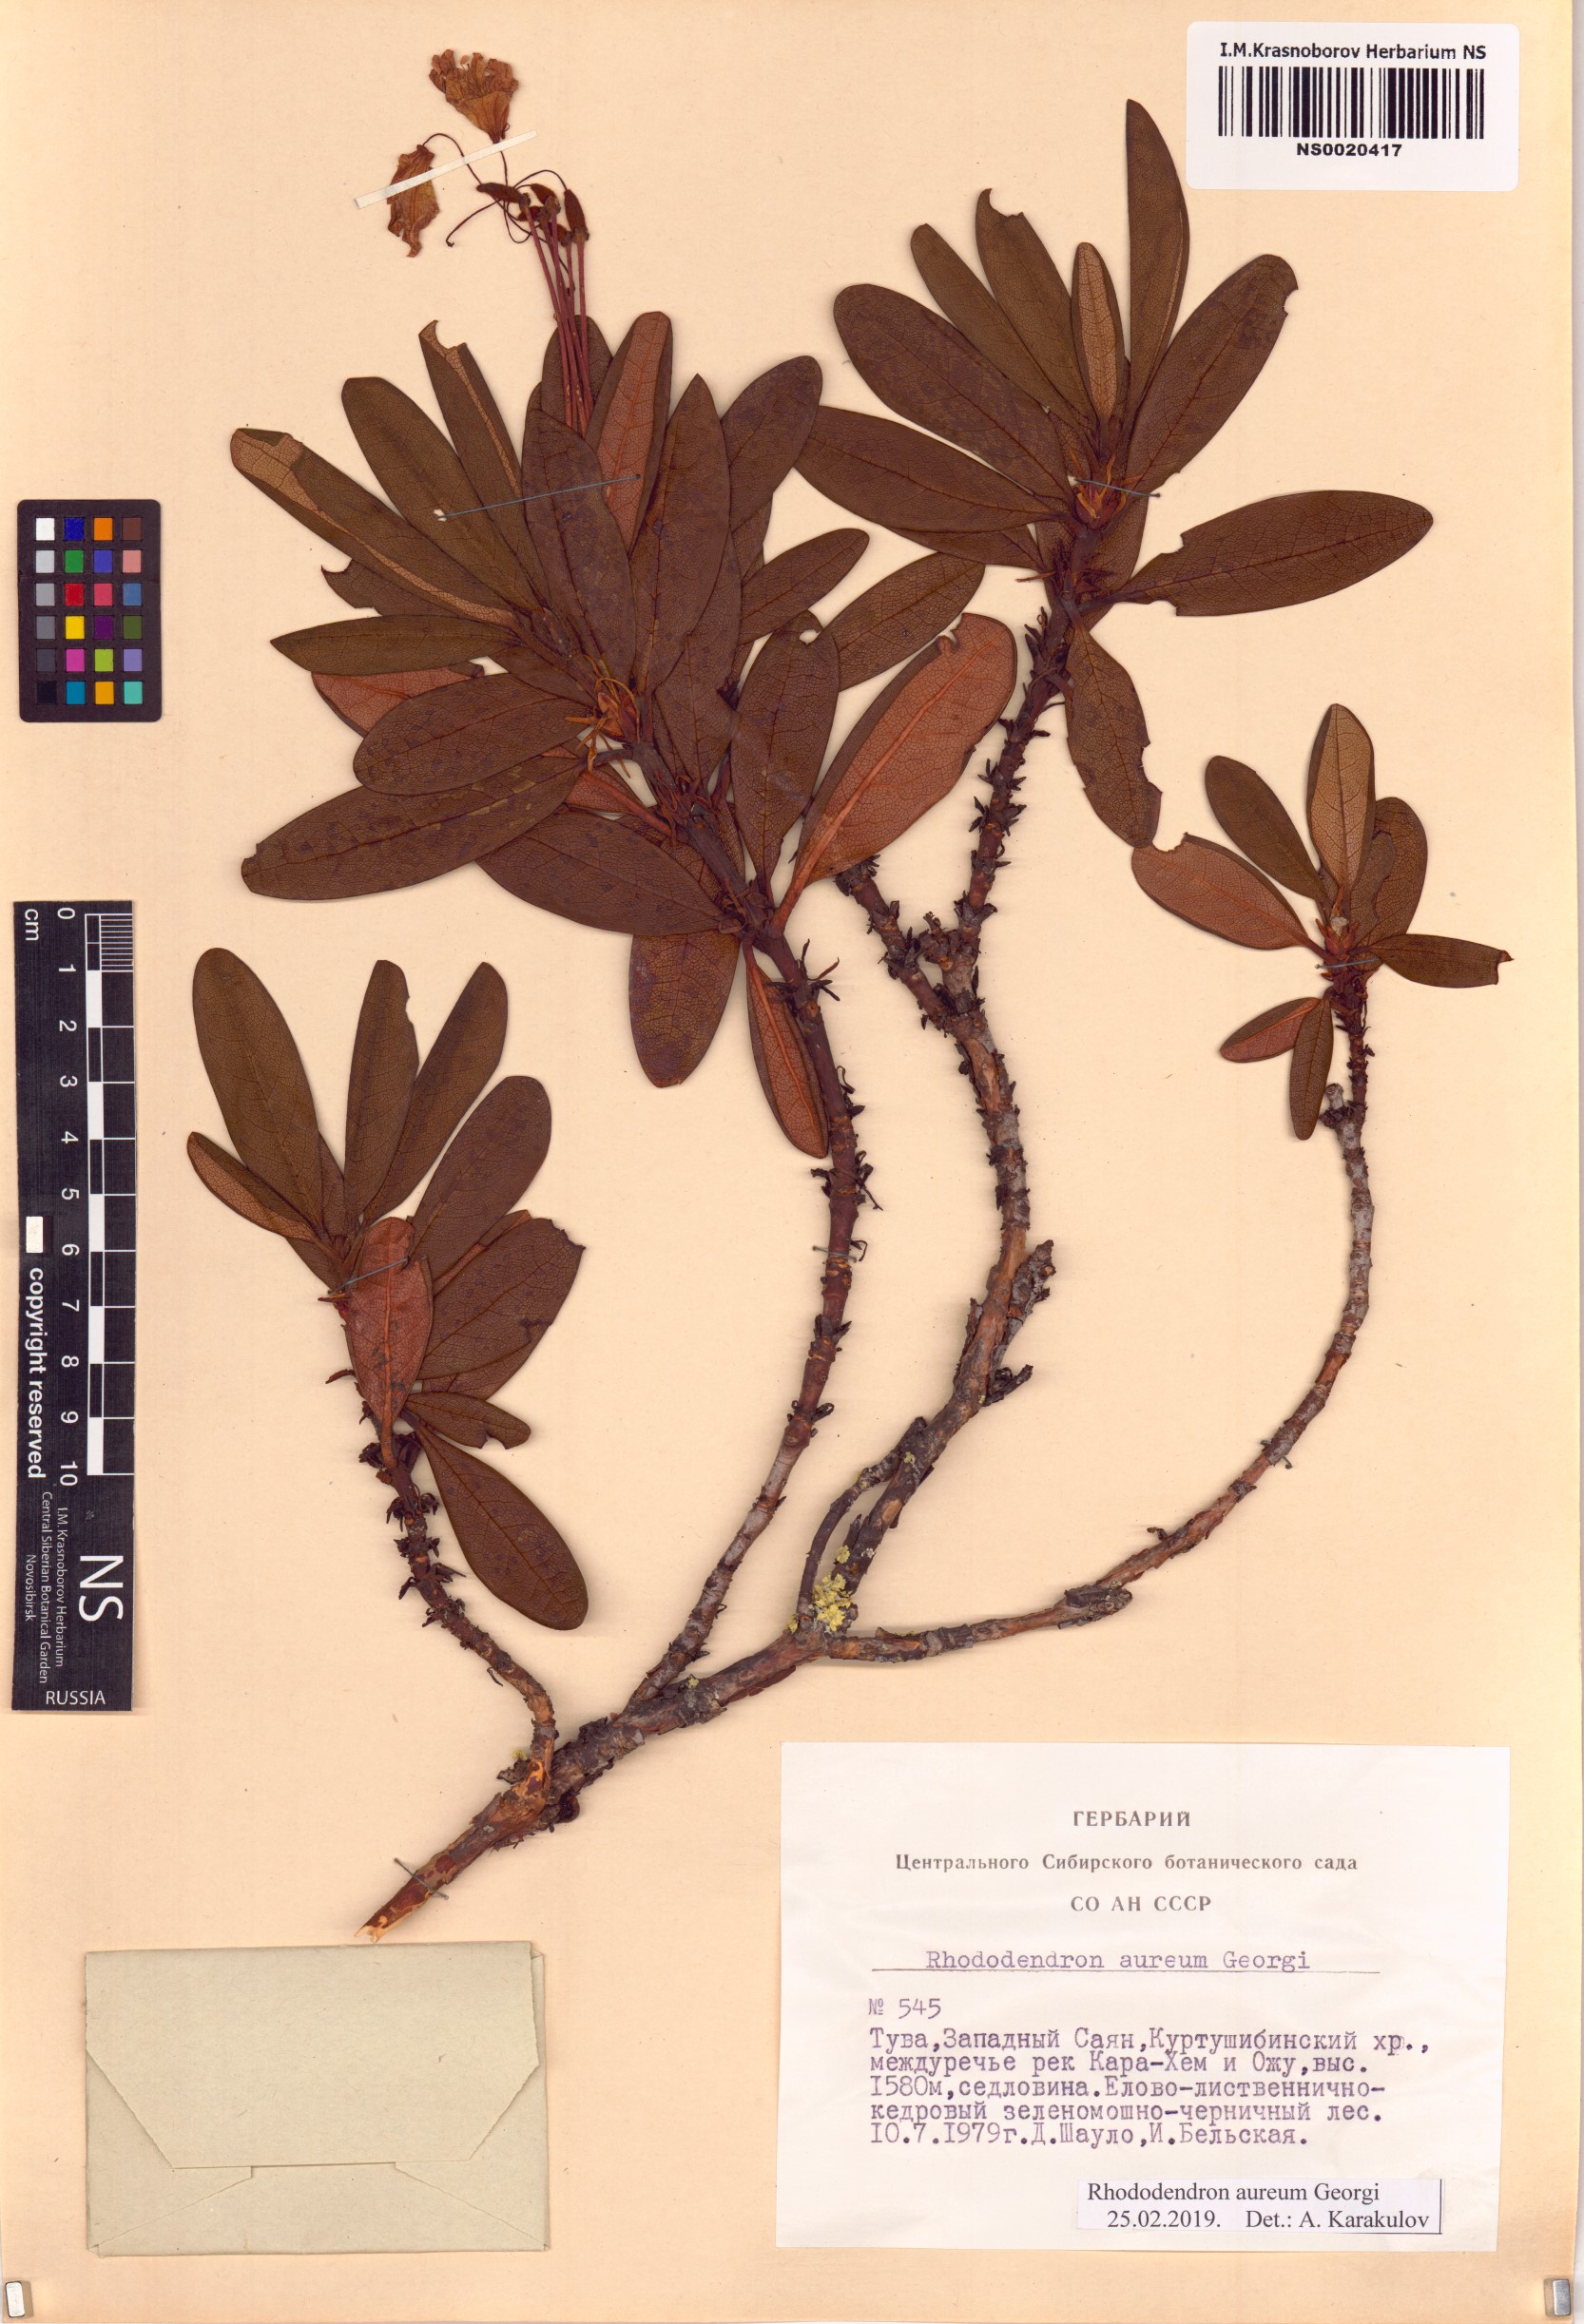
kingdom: Plantae
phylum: Tracheophyta
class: Magnoliopsida
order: Ericales
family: Ericaceae
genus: Rhododendron
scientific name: Rhododendron aureum
